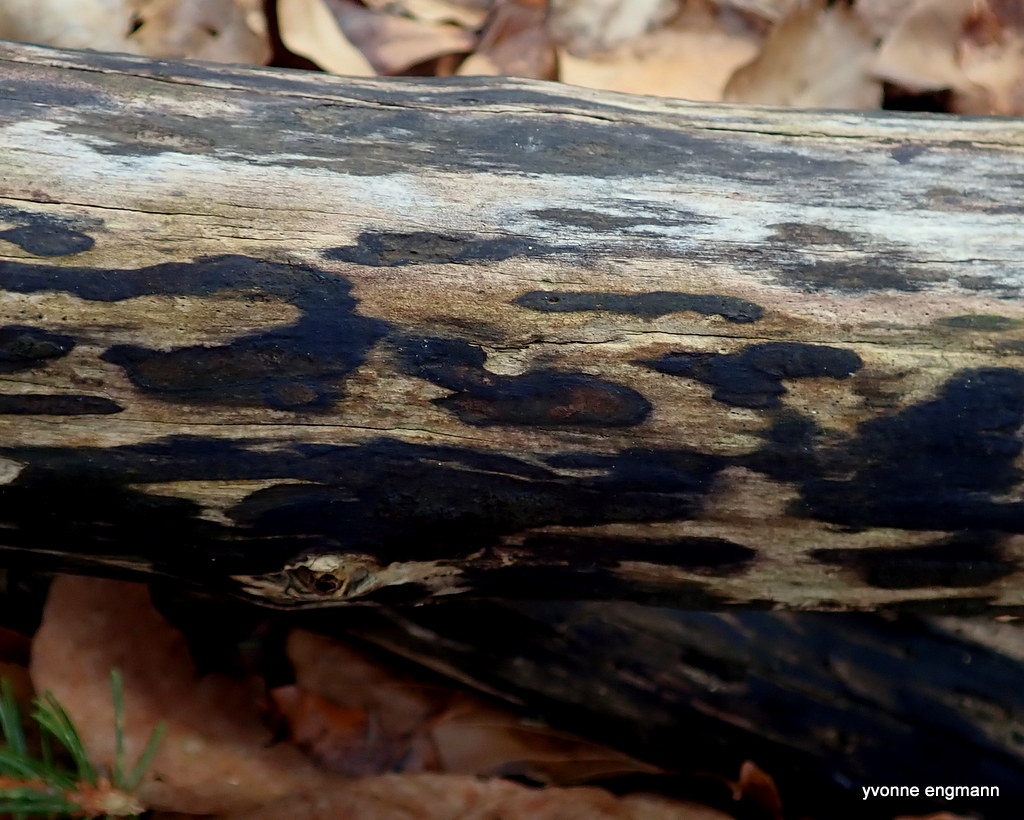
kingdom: Fungi
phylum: Ascomycota
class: Sordariomycetes
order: Xylariales
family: Hypoxylaceae
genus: Hypoxylon
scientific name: Hypoxylon petriniae
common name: nedsænket kulbær
